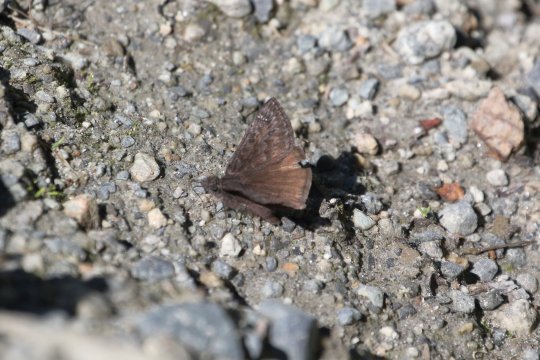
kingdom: Animalia
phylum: Arthropoda
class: Insecta
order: Lepidoptera
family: Hesperiidae
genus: Gesta
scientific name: Gesta
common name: Persius Duskywing
